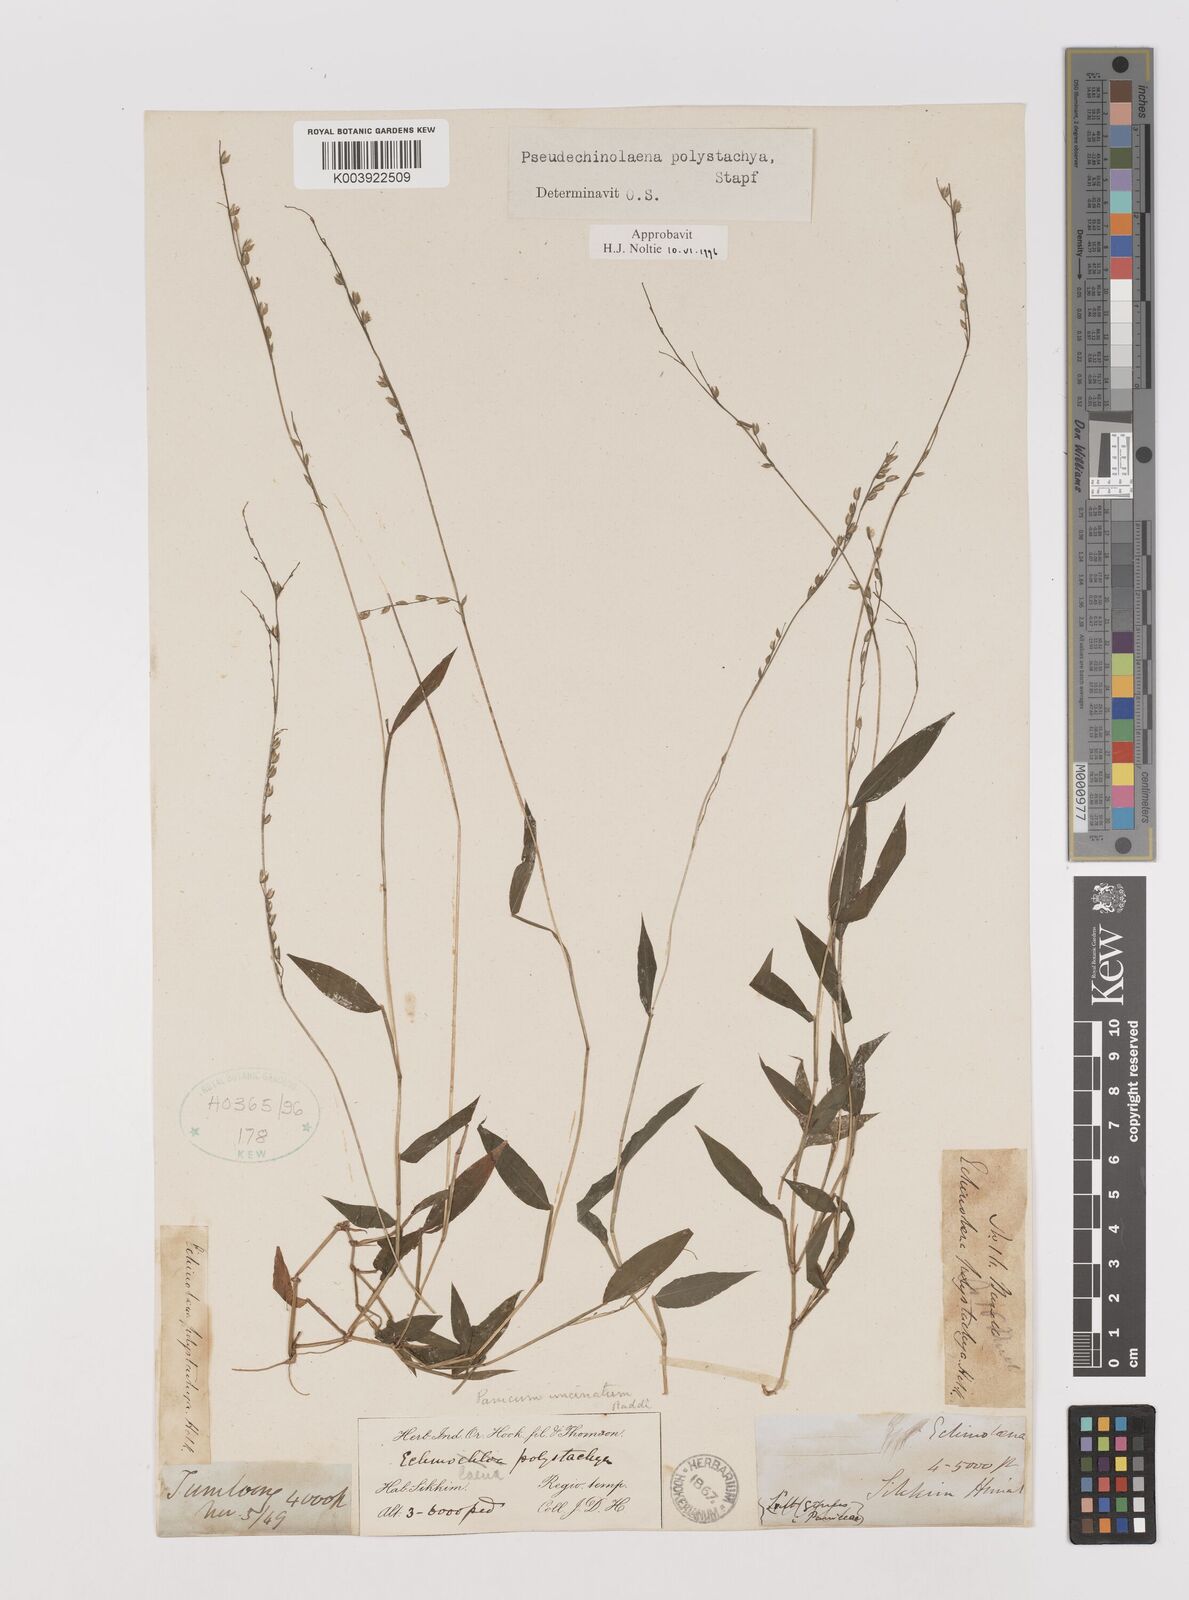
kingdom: Plantae
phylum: Tracheophyta
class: Liliopsida
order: Poales
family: Poaceae
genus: Pseudechinolaena
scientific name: Pseudechinolaena polystachya
